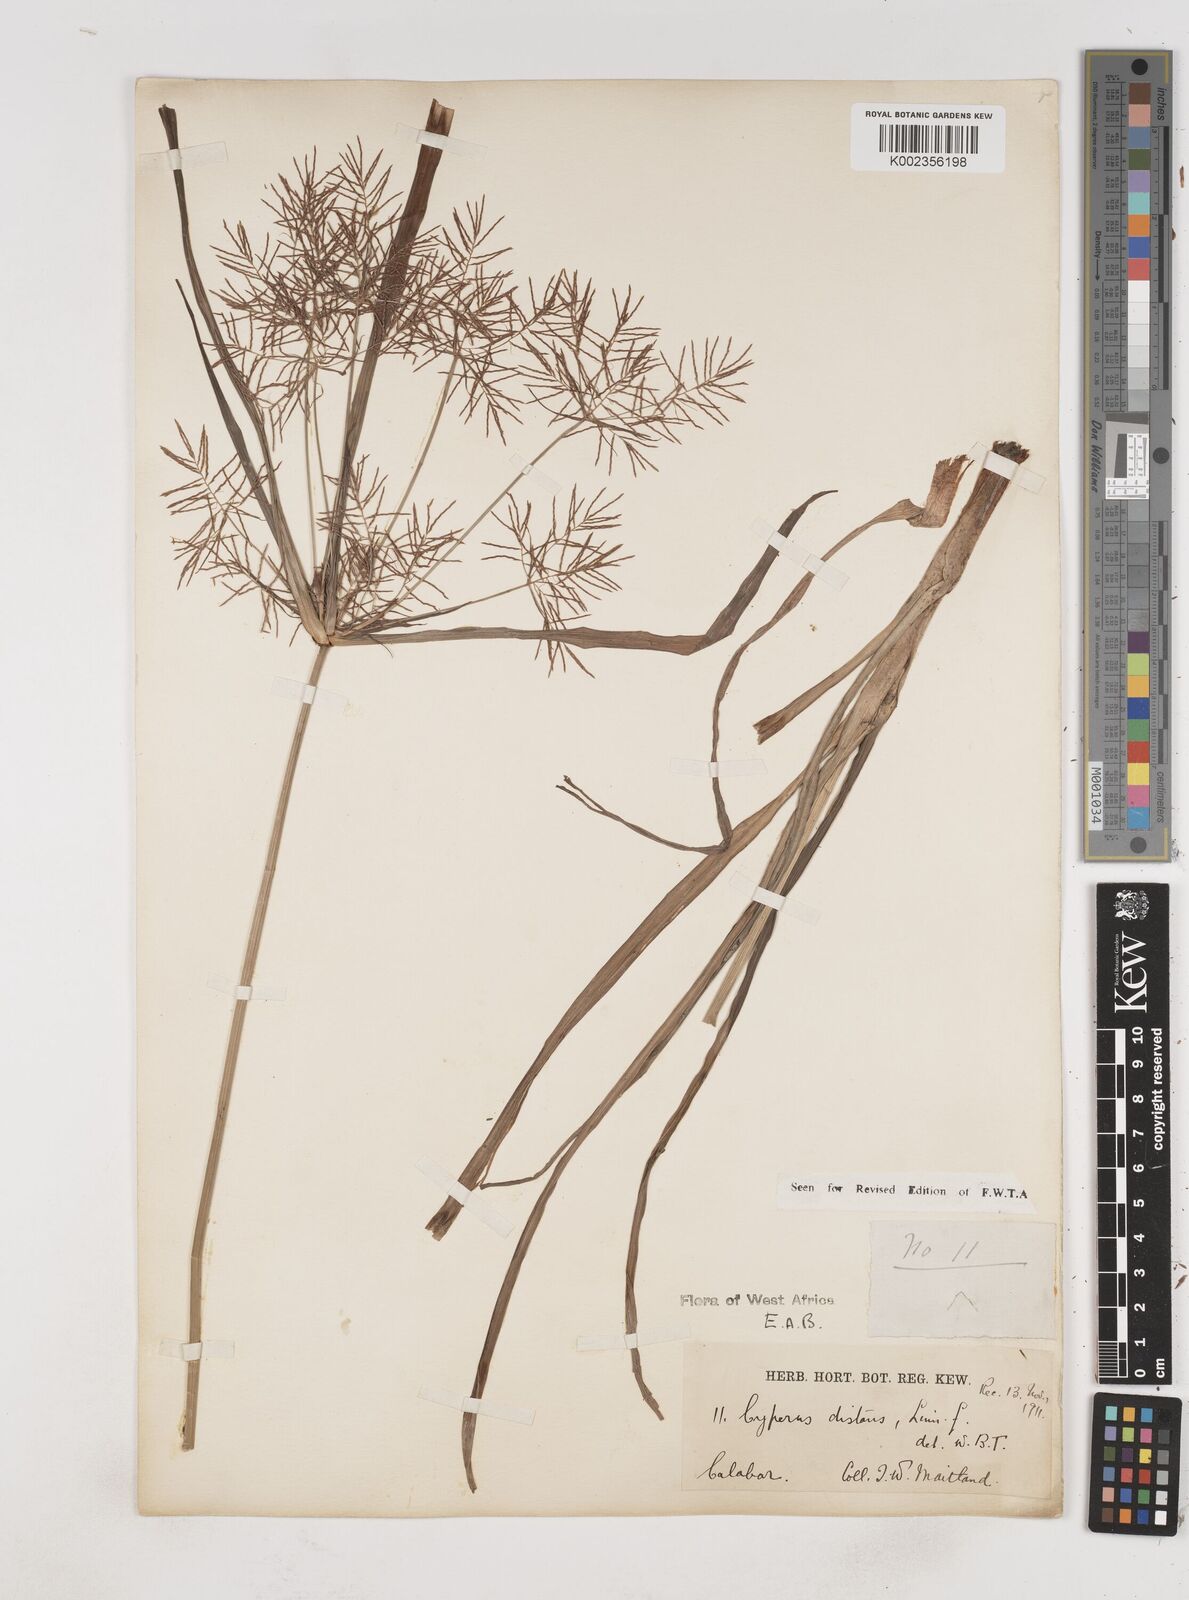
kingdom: Plantae
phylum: Tracheophyta
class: Liliopsida
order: Poales
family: Cyperaceae
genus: Cyperus
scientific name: Cyperus distans
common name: Slender cyperus
